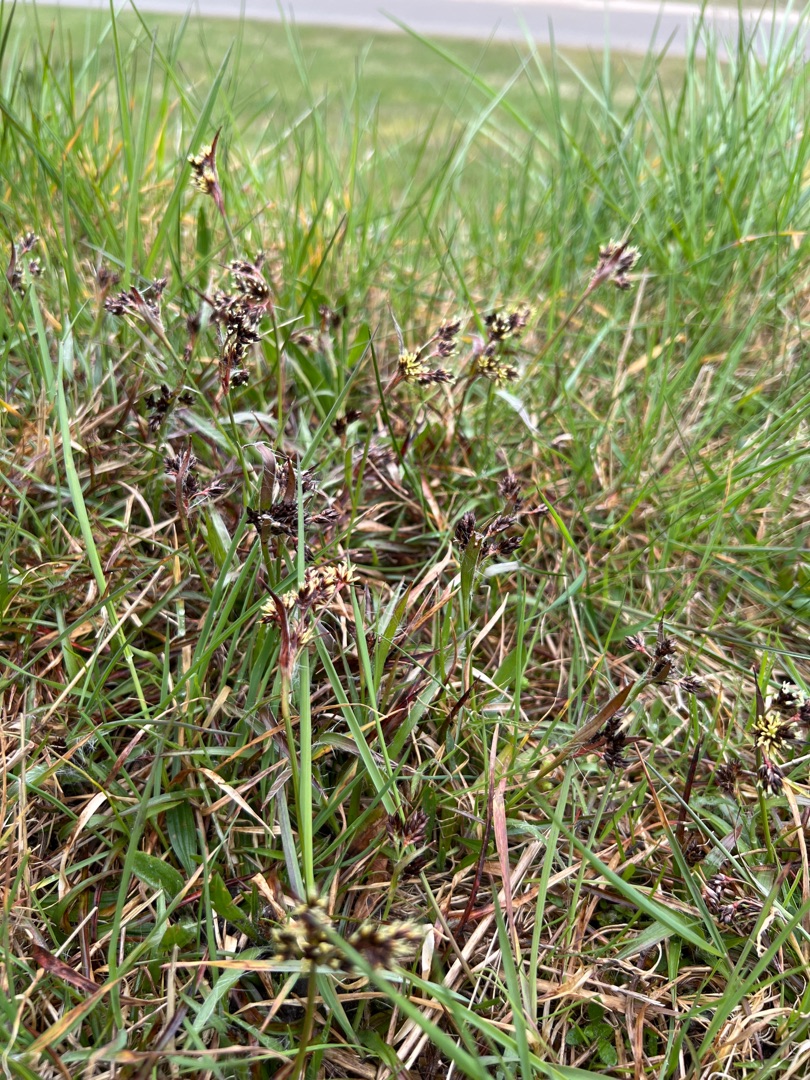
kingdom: Plantae
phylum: Tracheophyta
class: Liliopsida
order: Poales
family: Juncaceae
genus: Luzula
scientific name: Luzula campestris
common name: Mark-frytle
